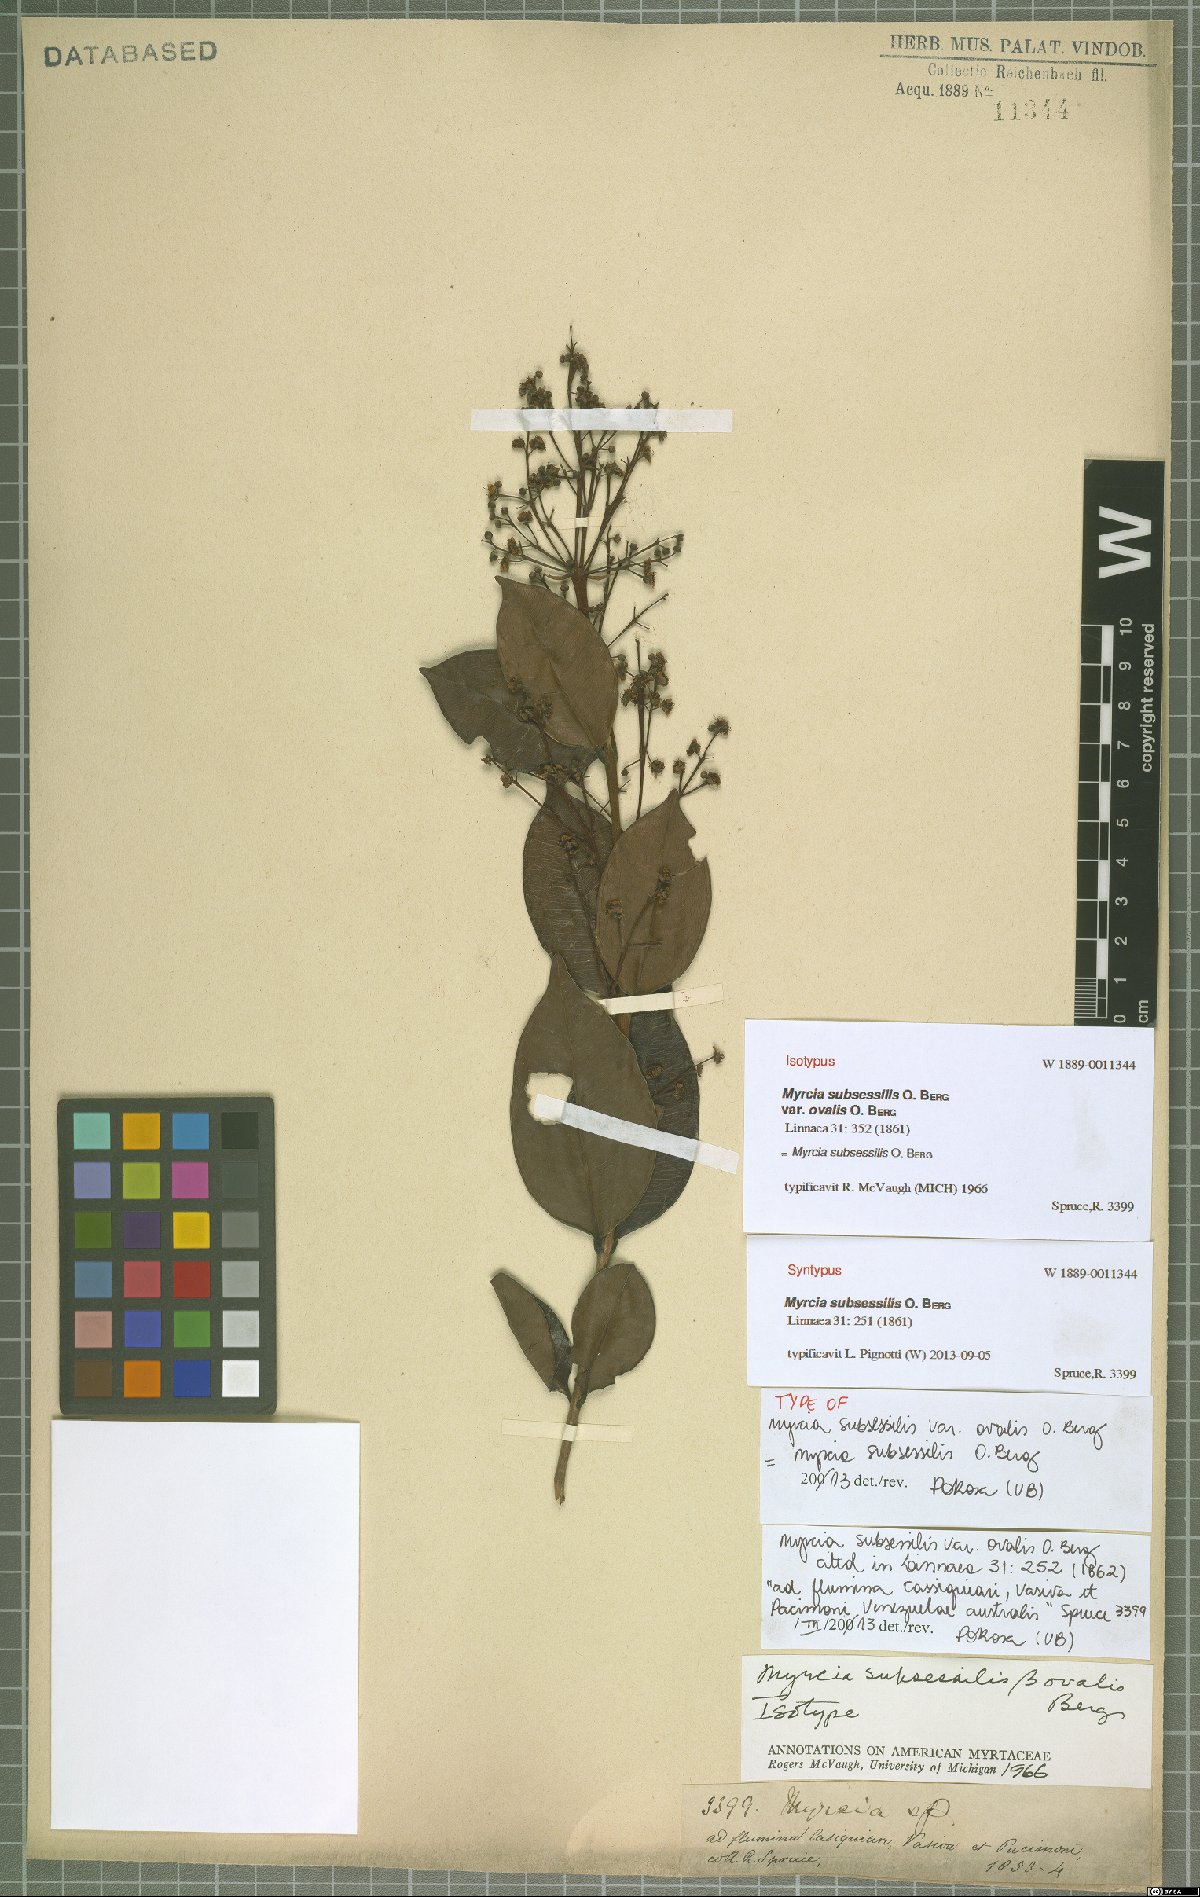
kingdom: Plantae
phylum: Tracheophyta
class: Magnoliopsida
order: Myrtales
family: Myrtaceae
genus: Myrcia
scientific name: Myrcia subsessilis
